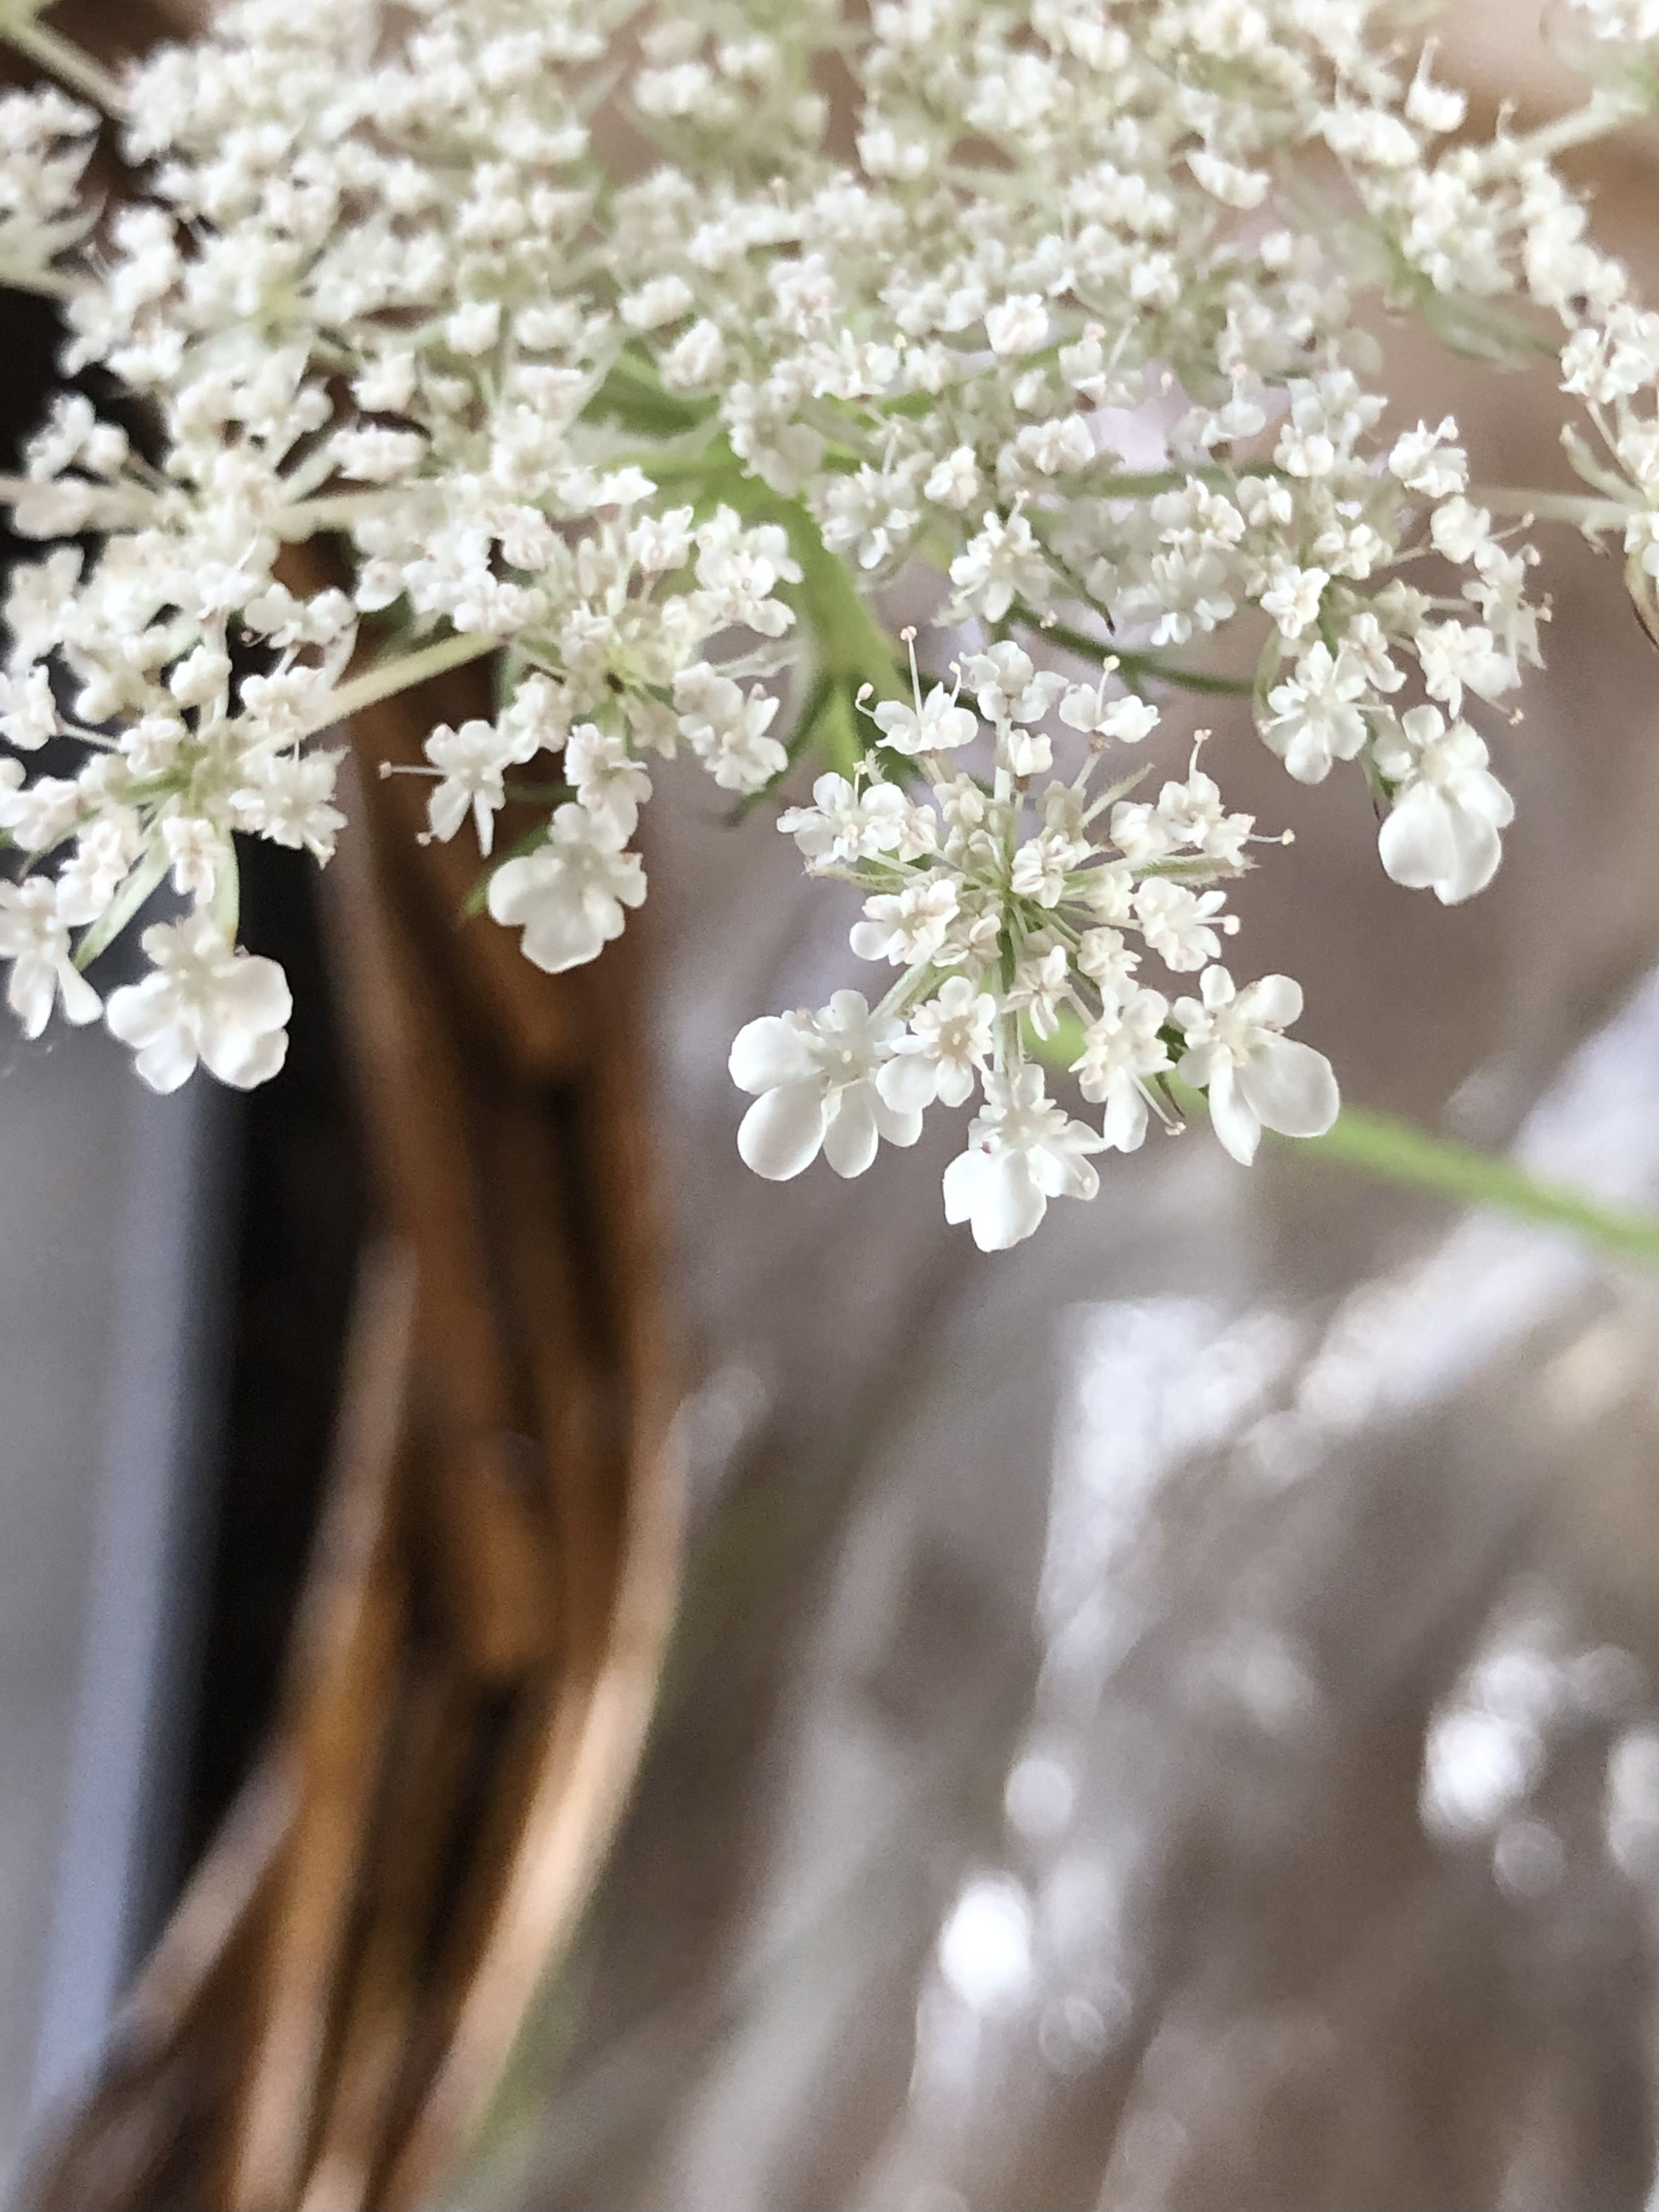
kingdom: Plantae
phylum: Tracheophyta
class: Magnoliopsida
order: Apiales
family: Apiaceae
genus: Daucus
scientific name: Daucus carota
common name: Vild gulerod
